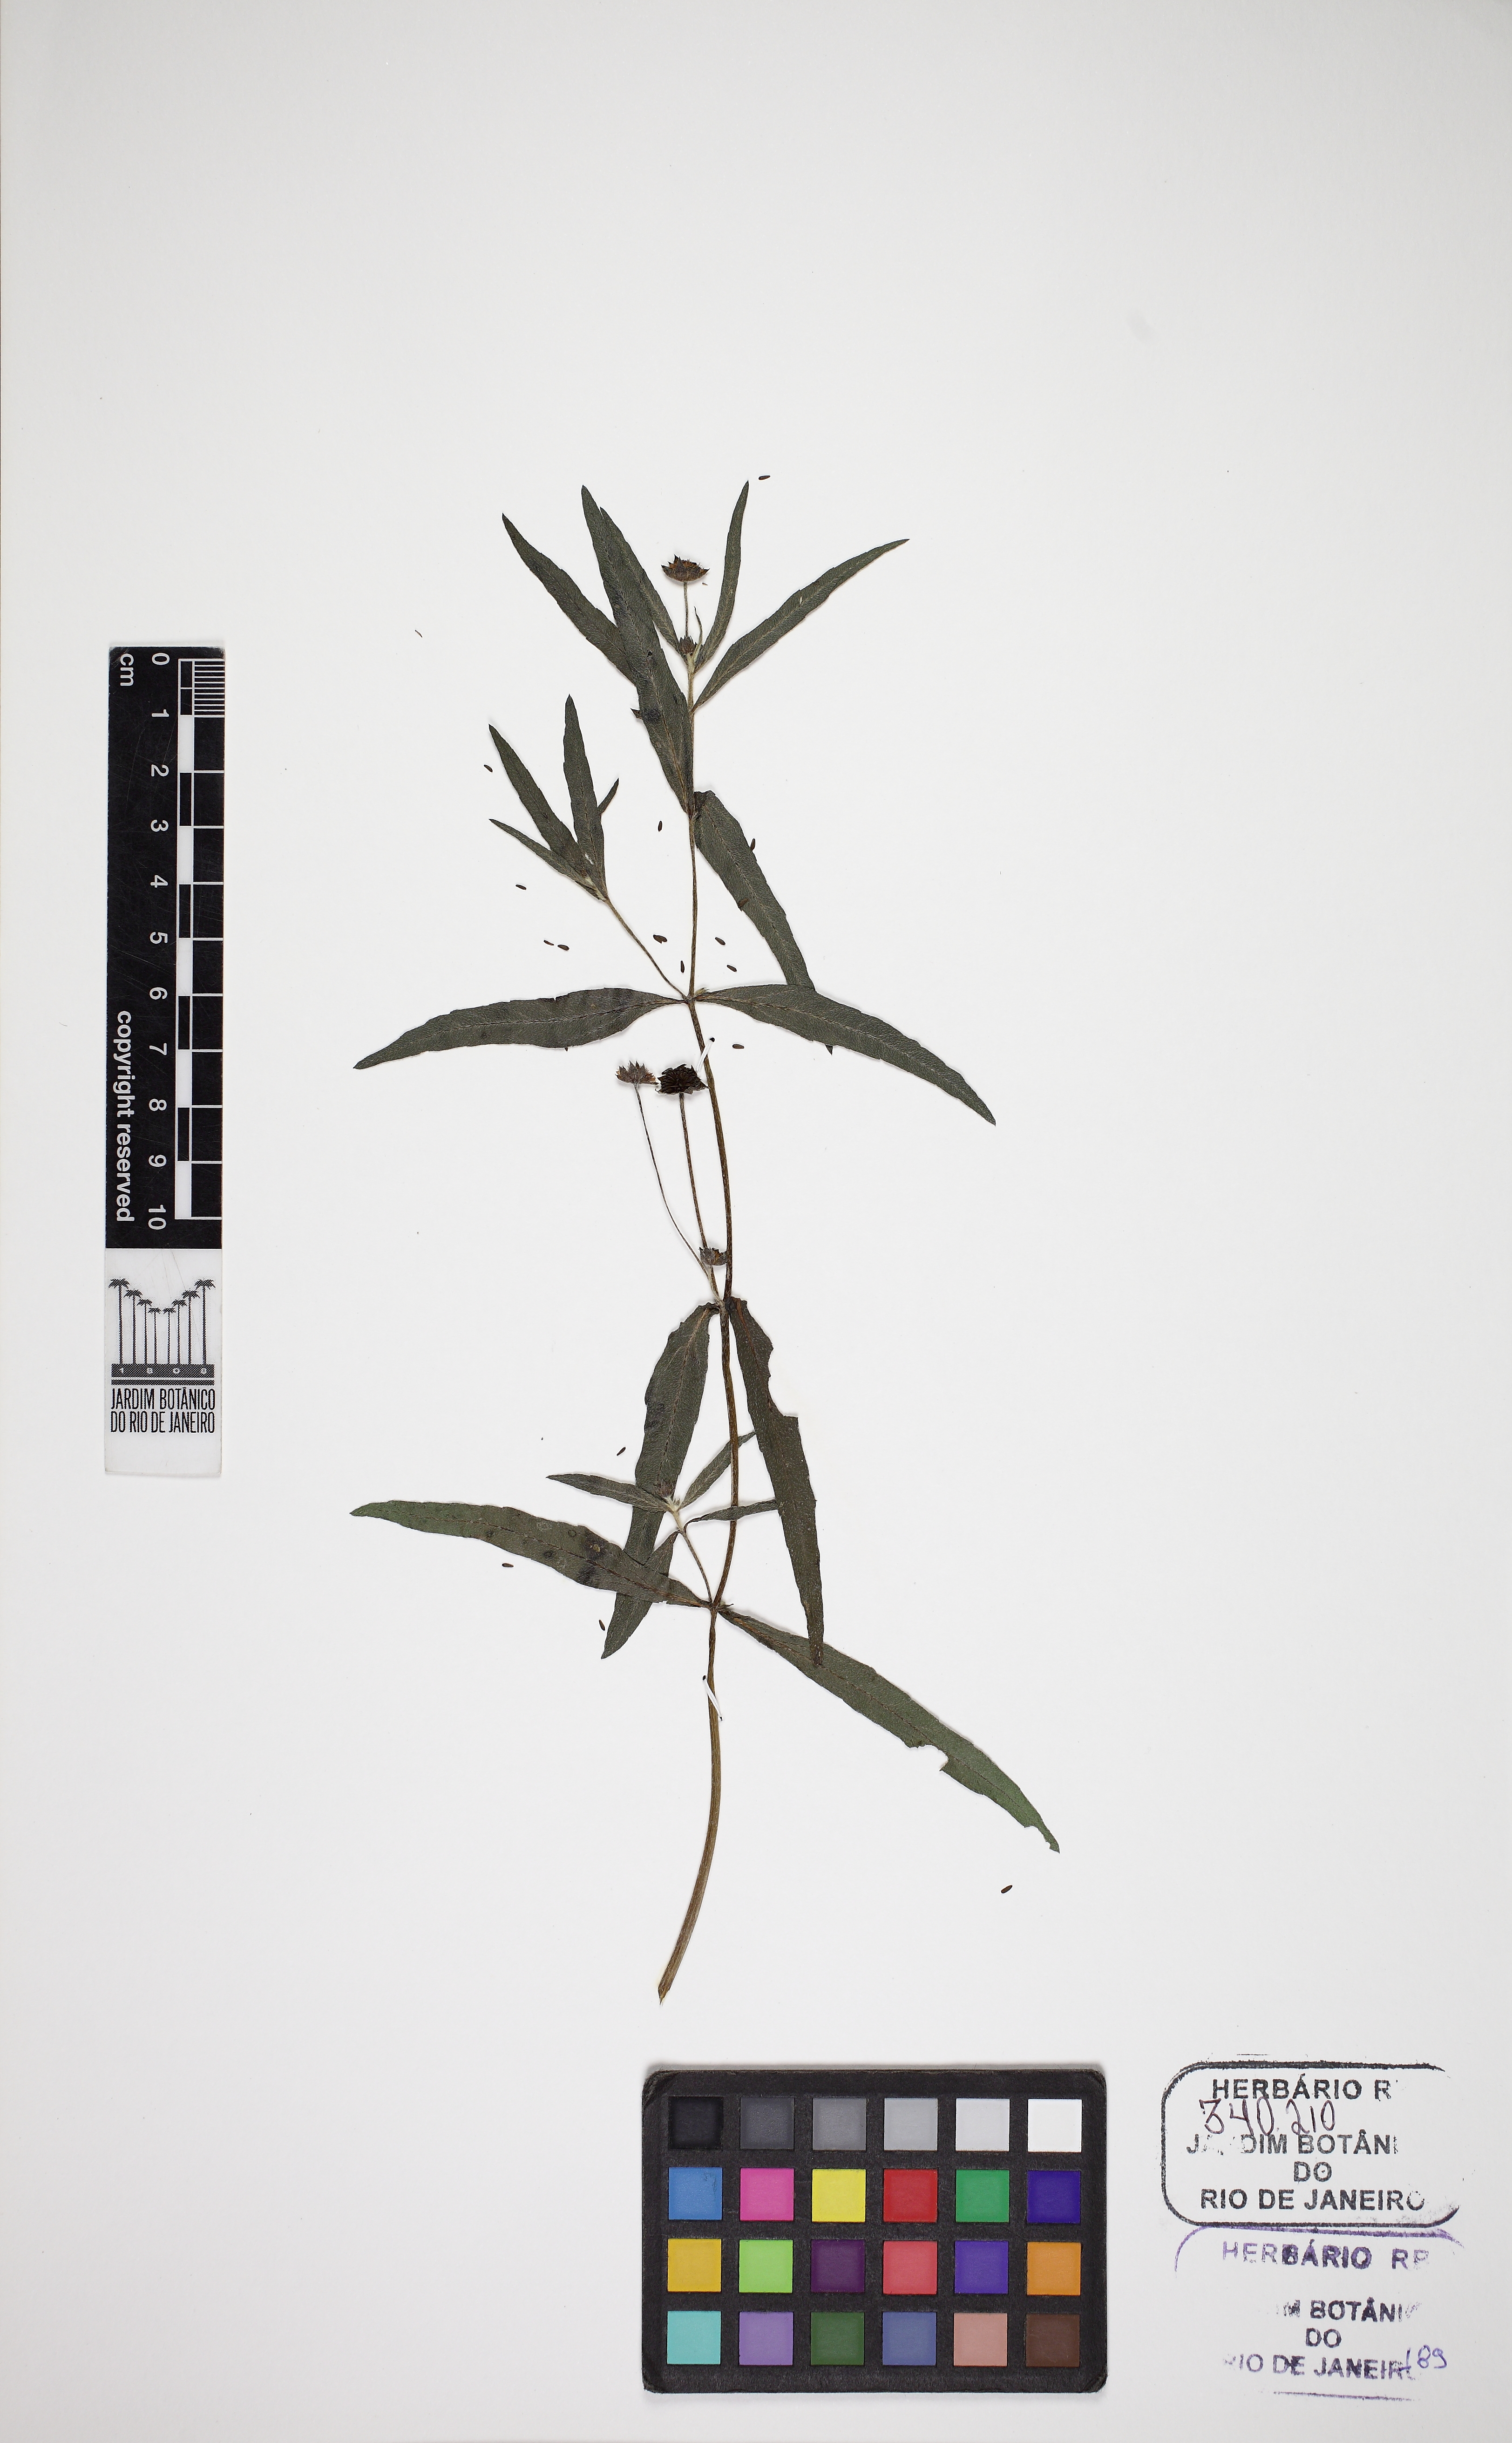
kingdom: Plantae
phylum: Tracheophyta
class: Magnoliopsida
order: Asterales
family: Asteraceae
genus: Eclipta
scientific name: Eclipta prostrata
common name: False daisy
